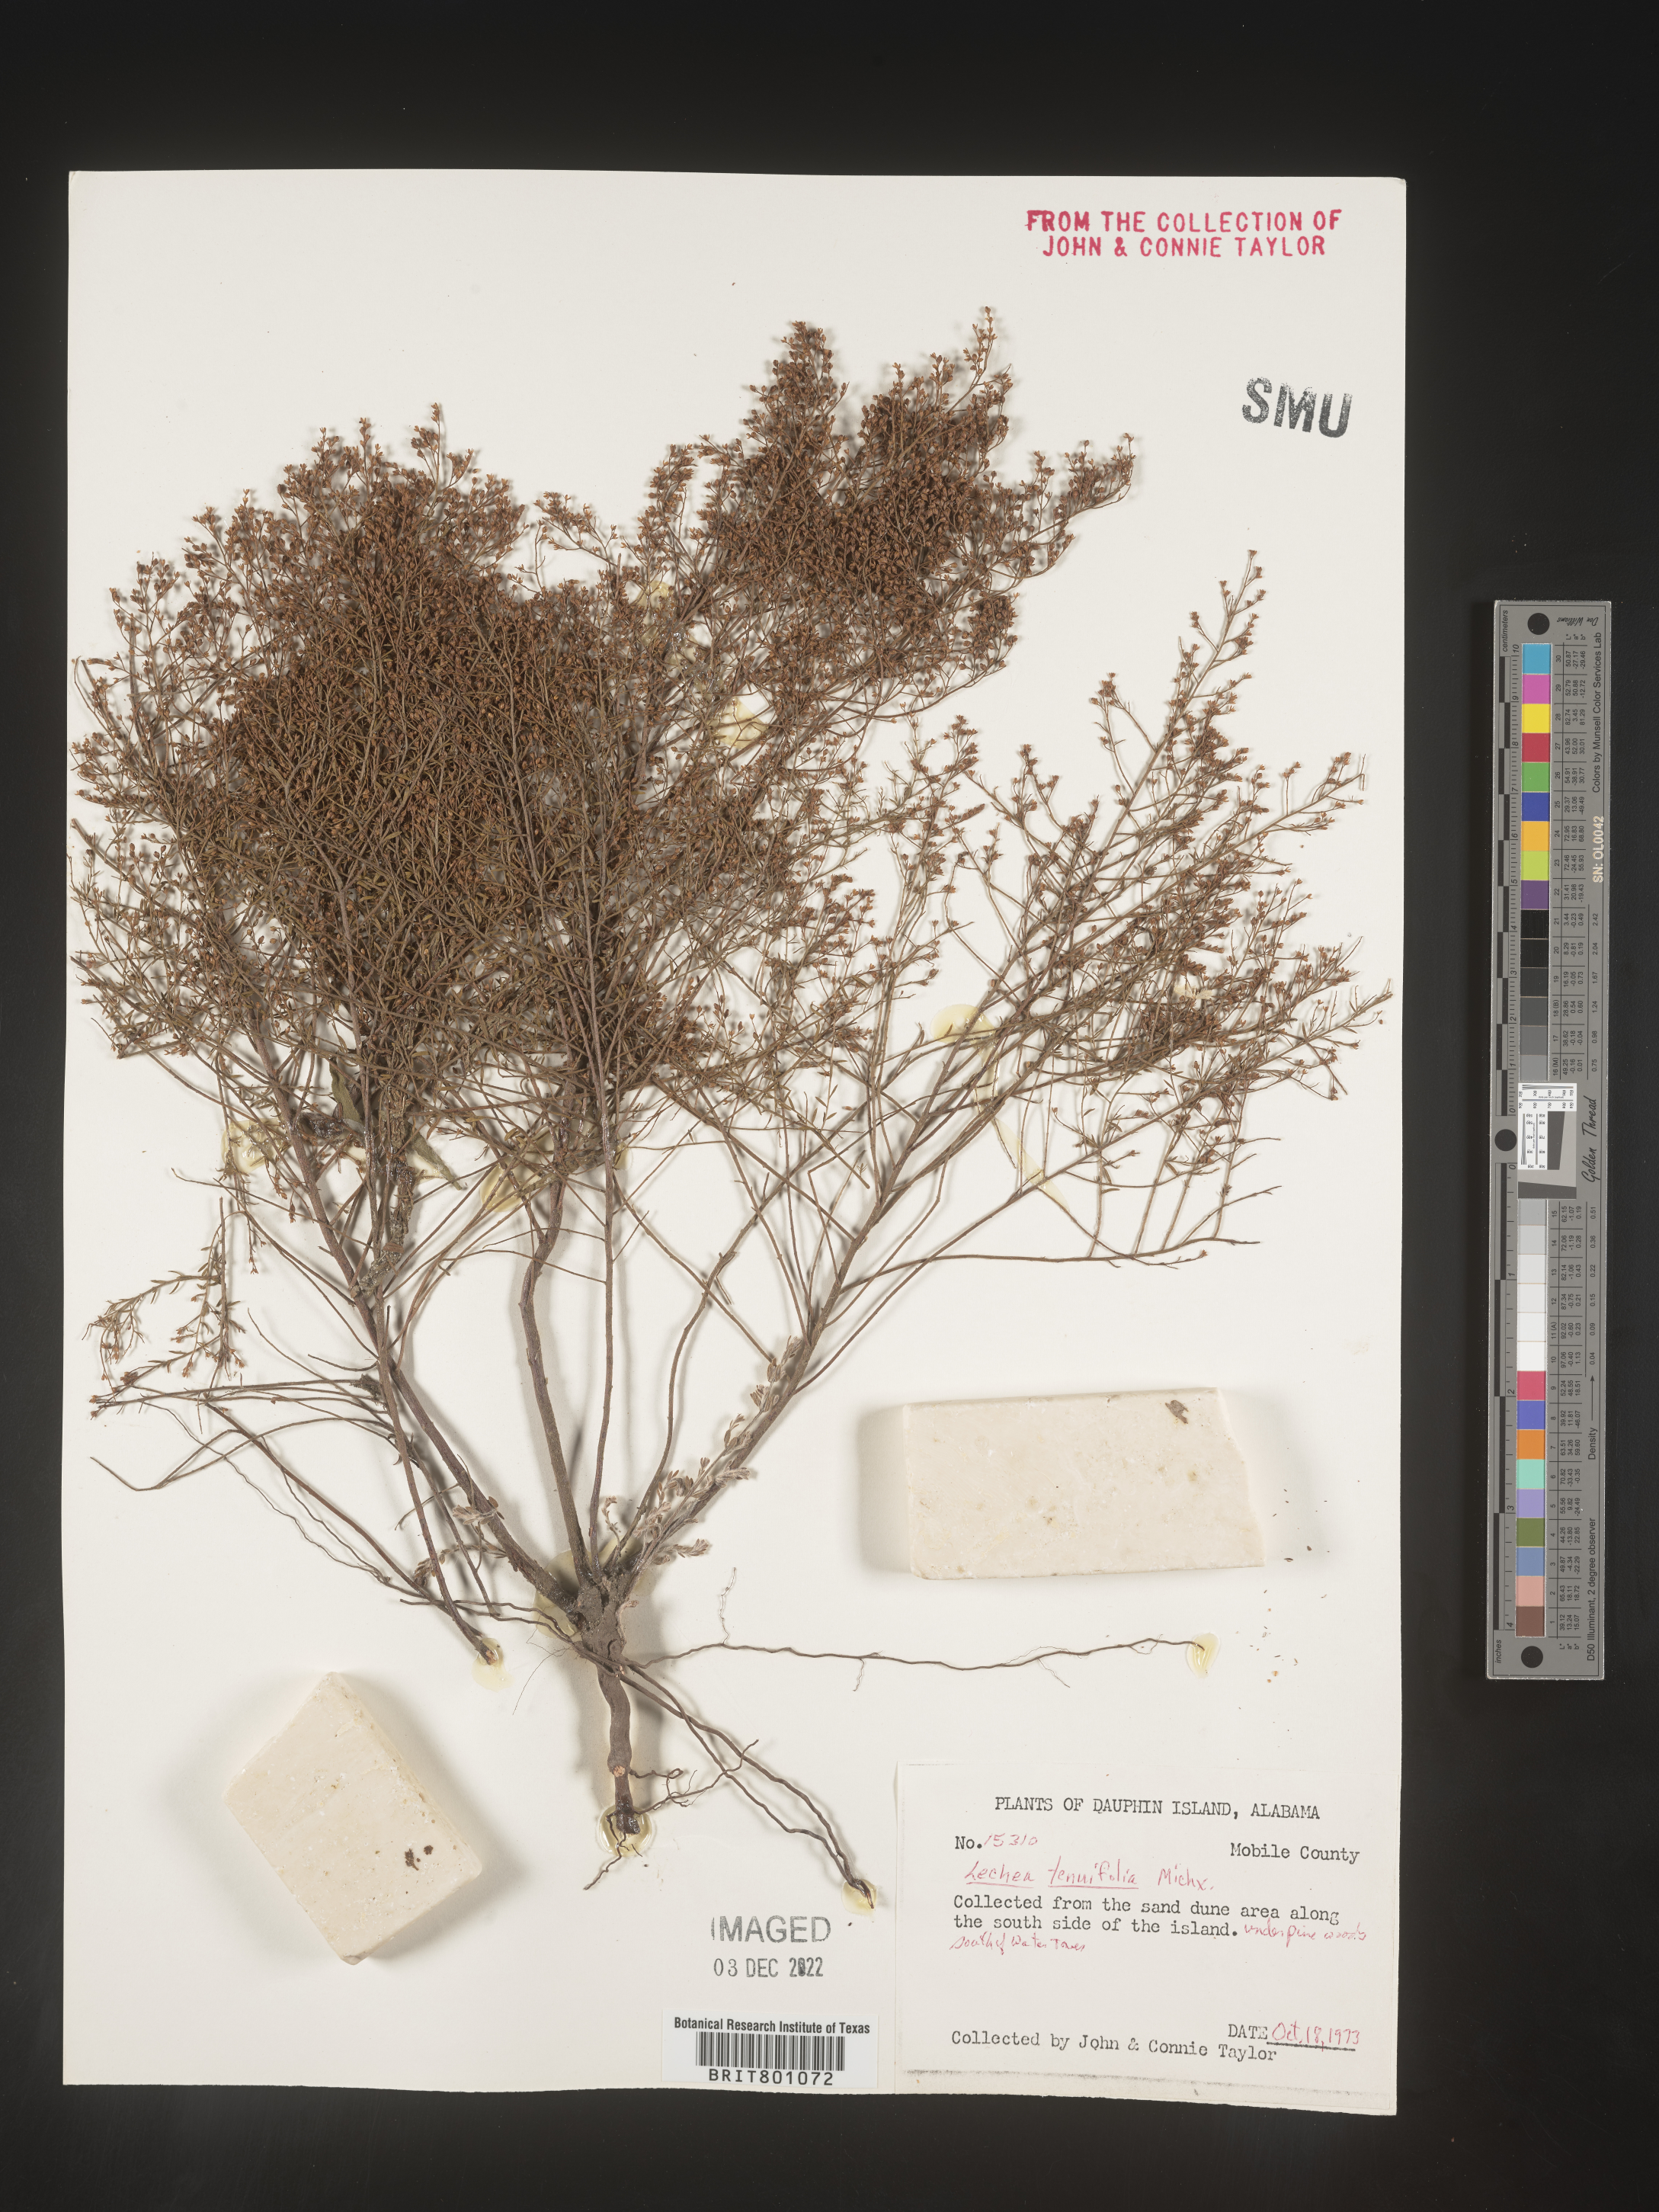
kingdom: Plantae
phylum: Tracheophyta
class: Magnoliopsida
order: Malvales
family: Cistaceae
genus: Lechea
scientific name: Lechea tenuifolia
